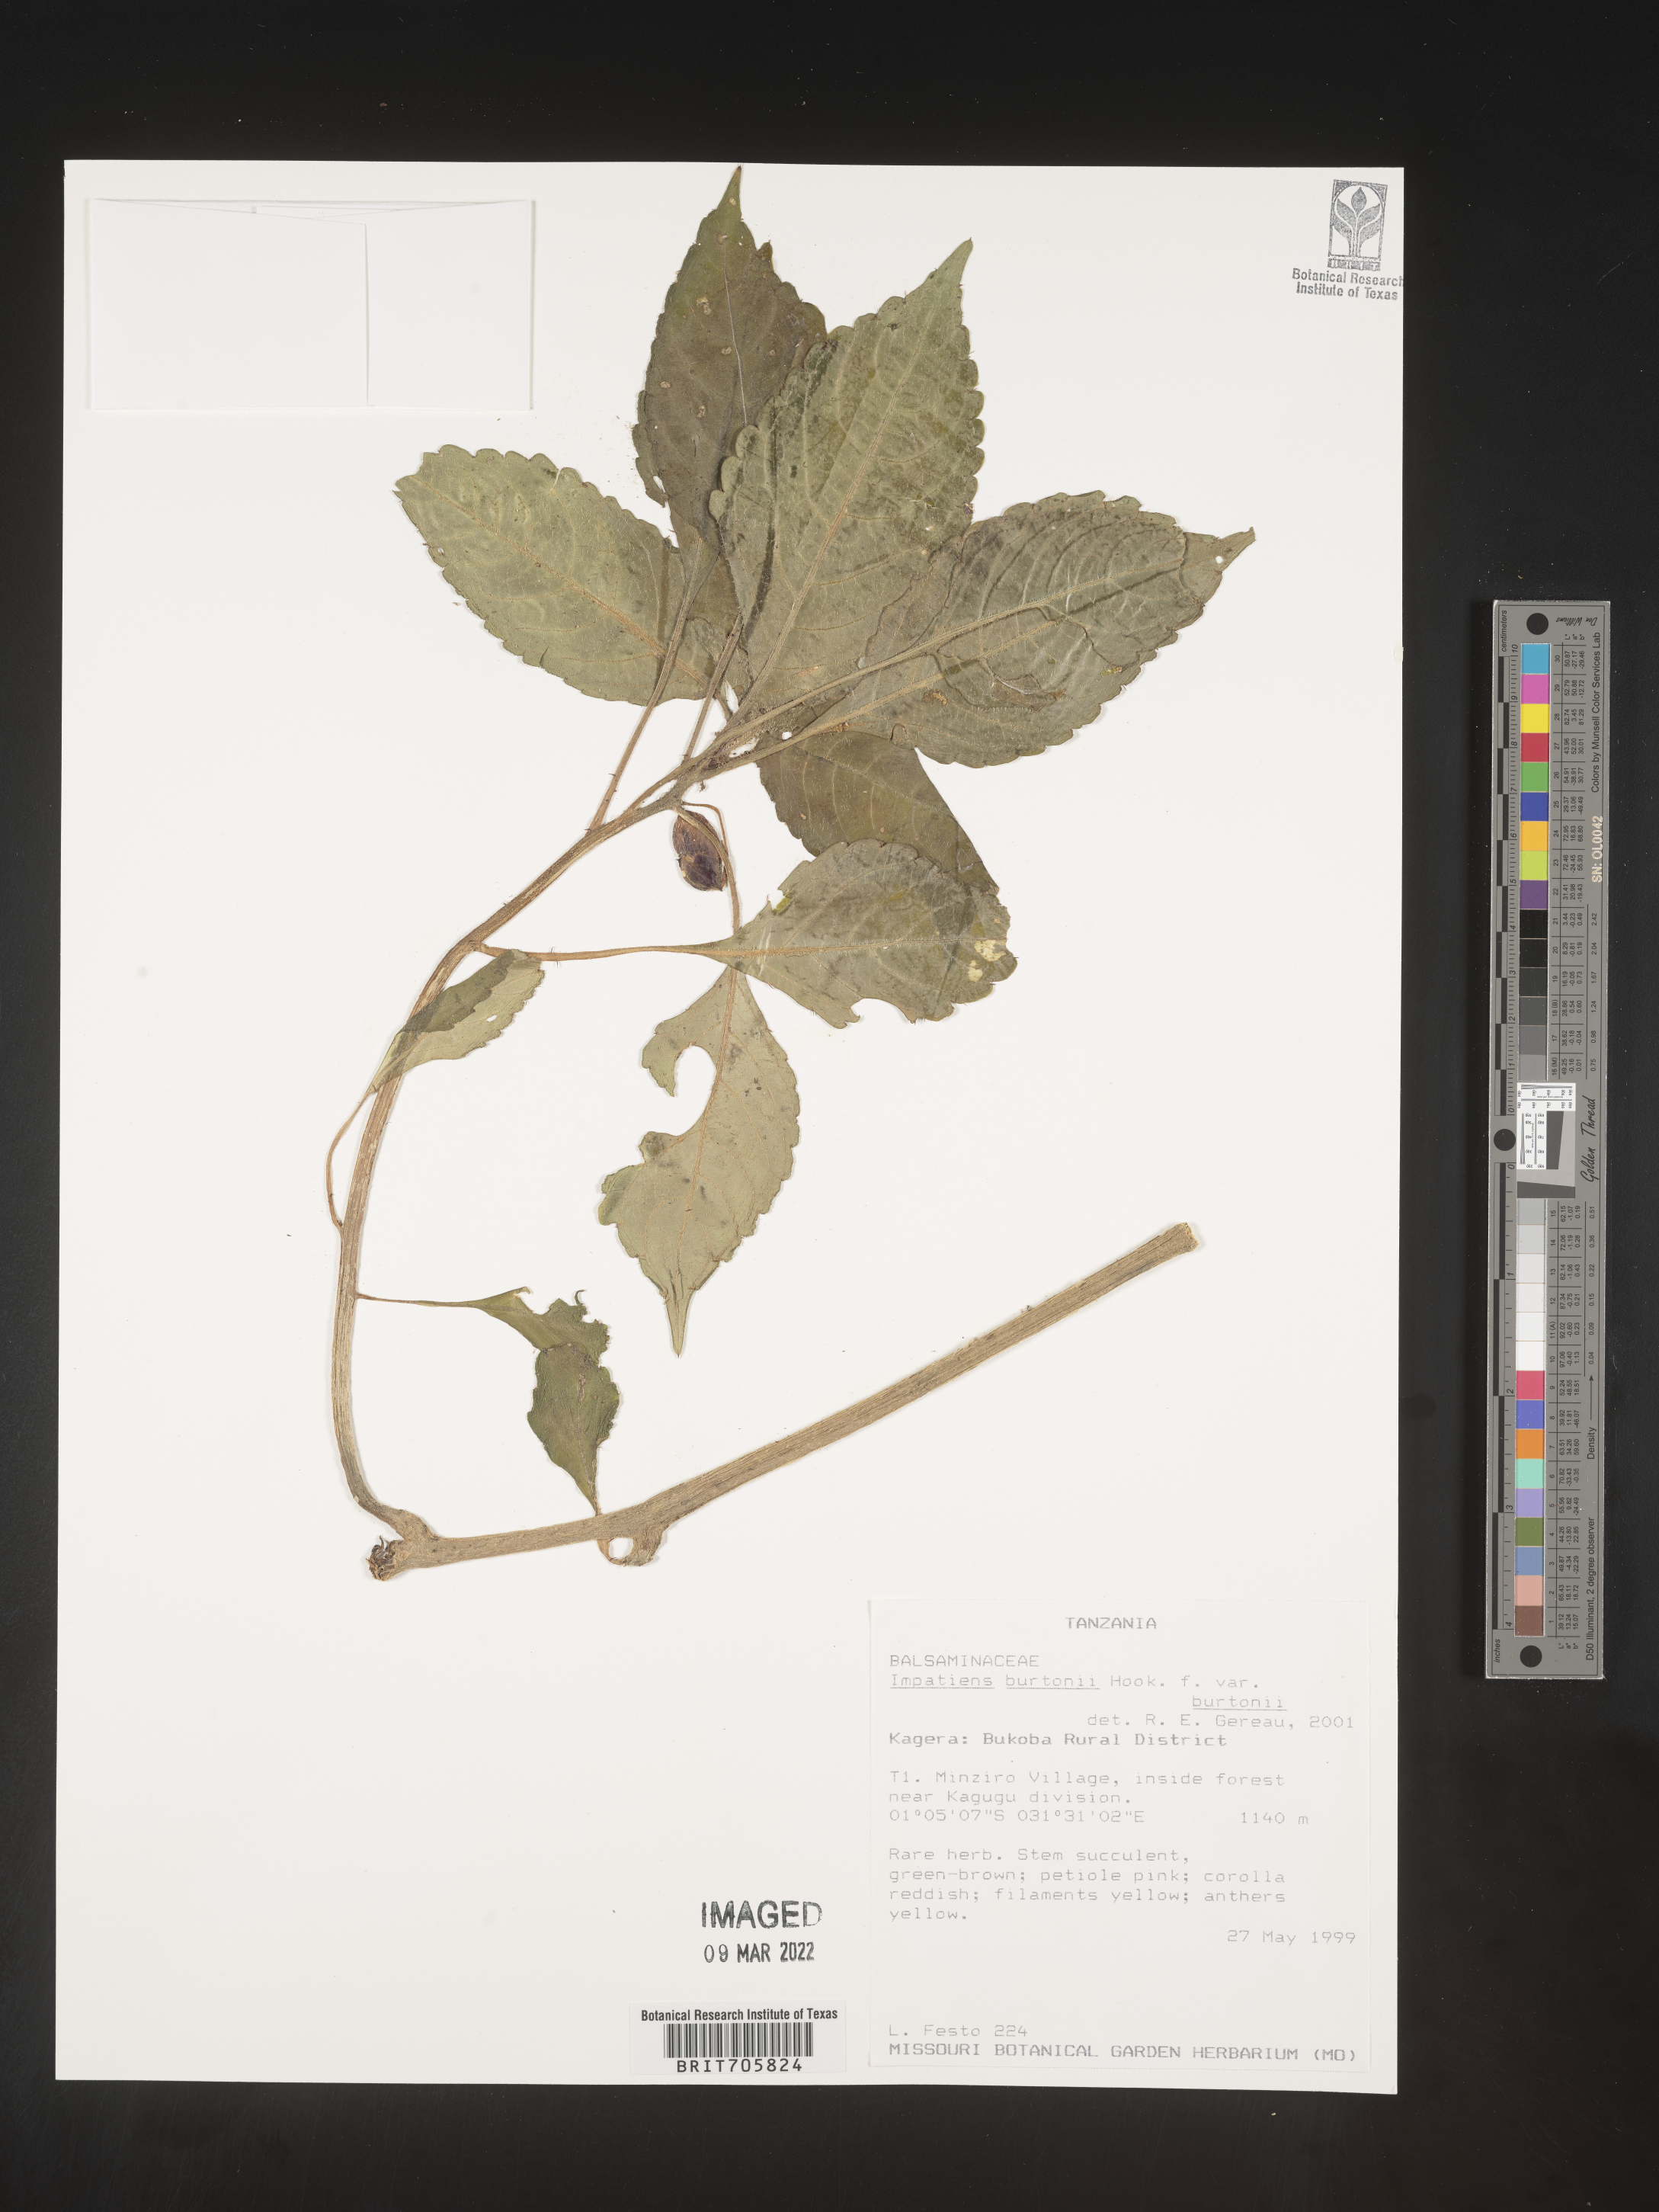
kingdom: Plantae
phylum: Tracheophyta
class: Magnoliopsida
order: Ericales
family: Balsaminaceae
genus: Impatiens
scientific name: Impatiens
